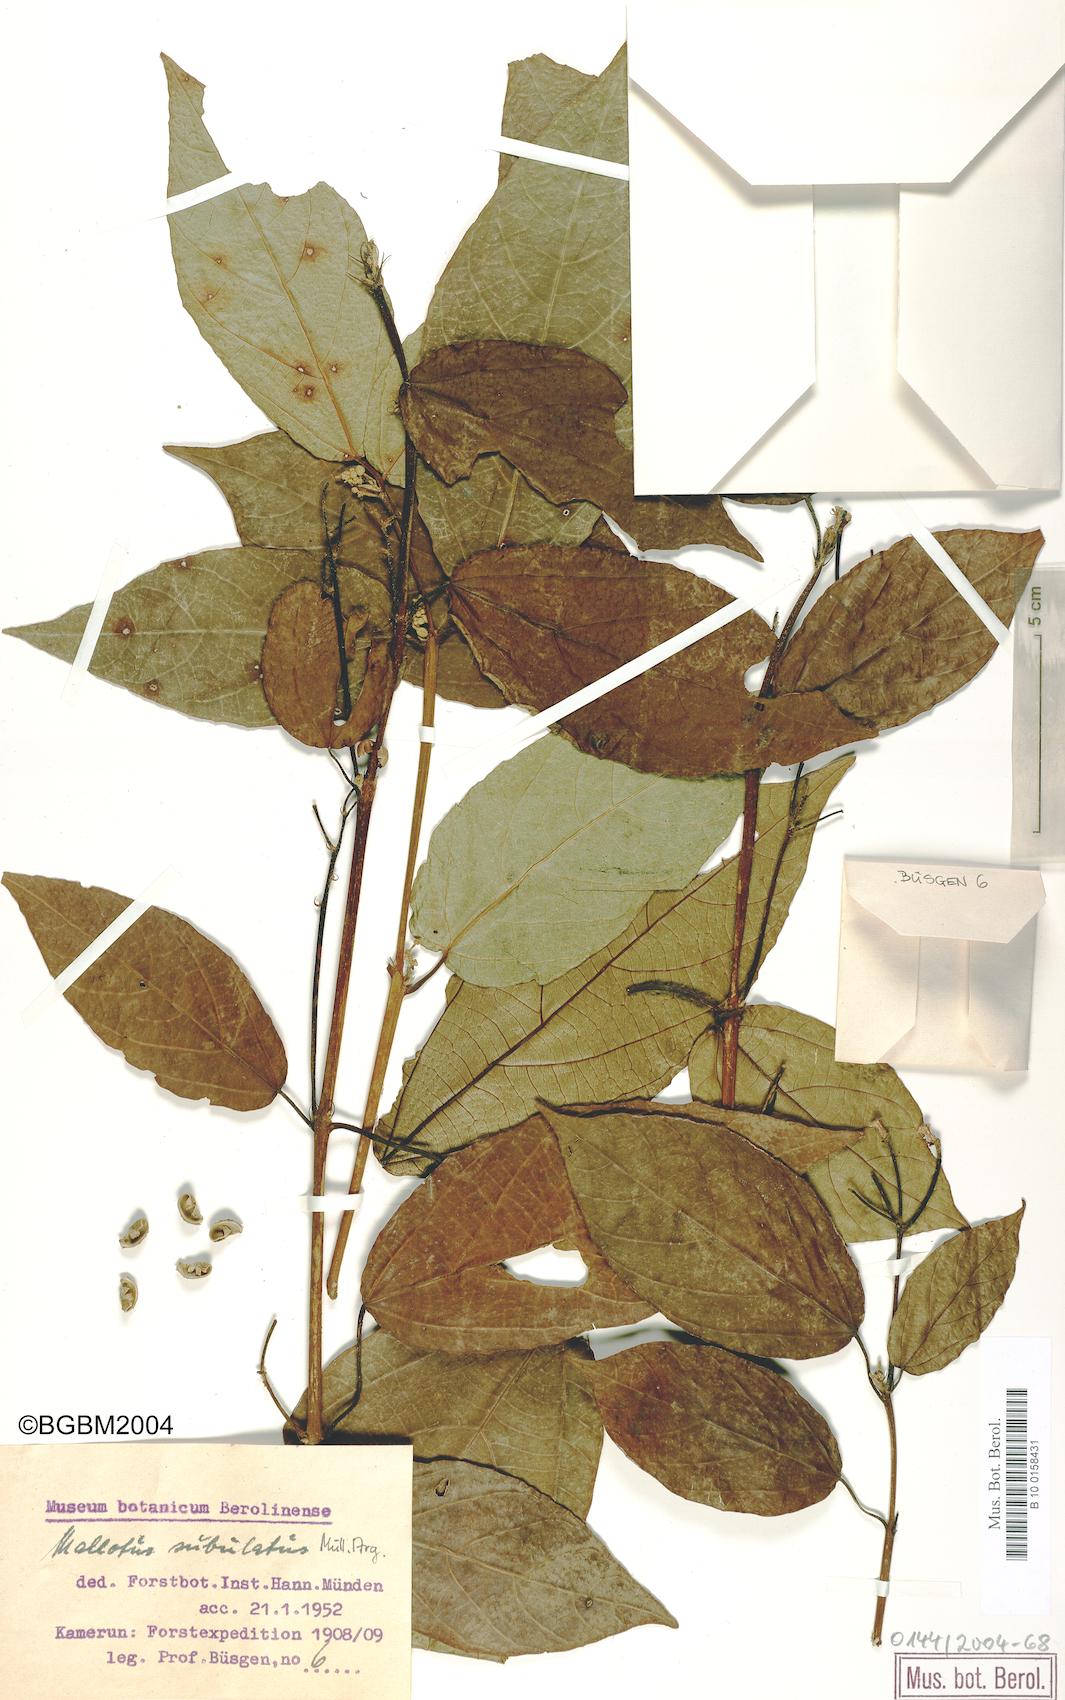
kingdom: Plantae
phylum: Tracheophyta
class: Magnoliopsida
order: Malpighiales
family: Euphorbiaceae
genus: Mallotus
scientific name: Mallotus subulatus
